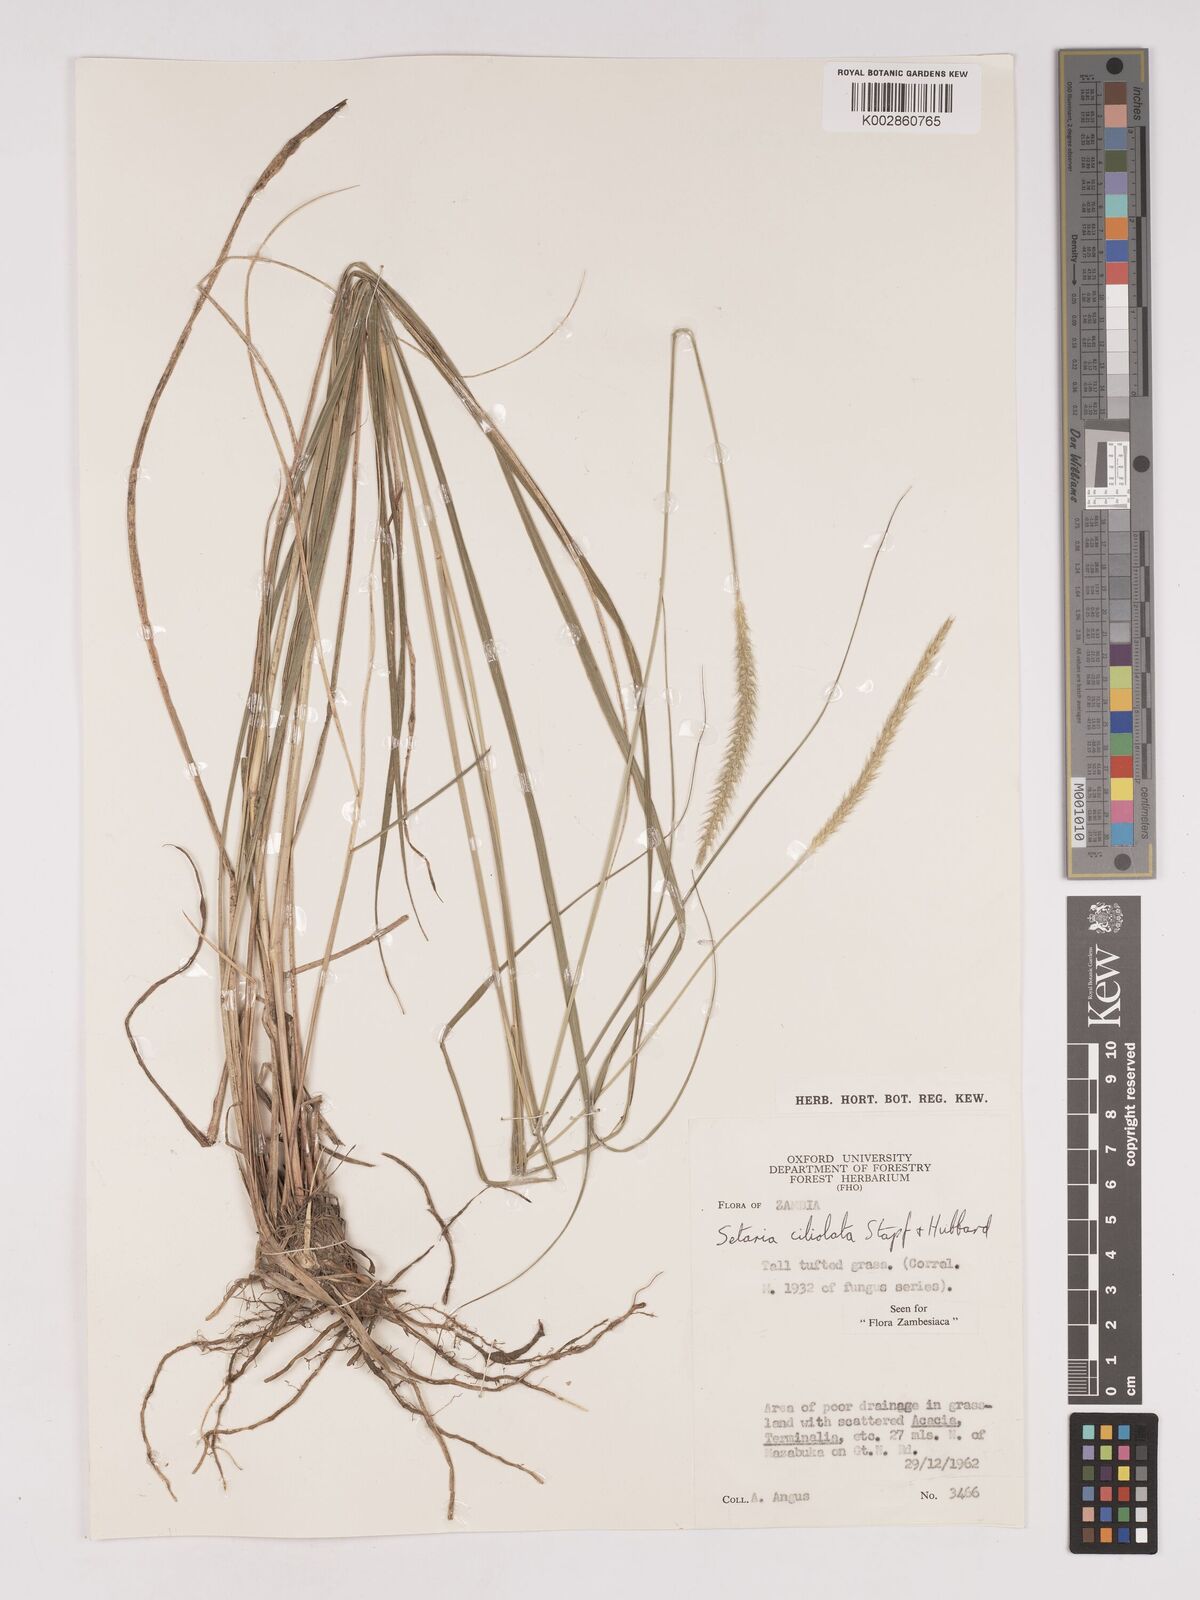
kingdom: Plantae
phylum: Tracheophyta
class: Liliopsida
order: Poales
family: Poaceae
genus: Setaria
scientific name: Setaria incrassata
